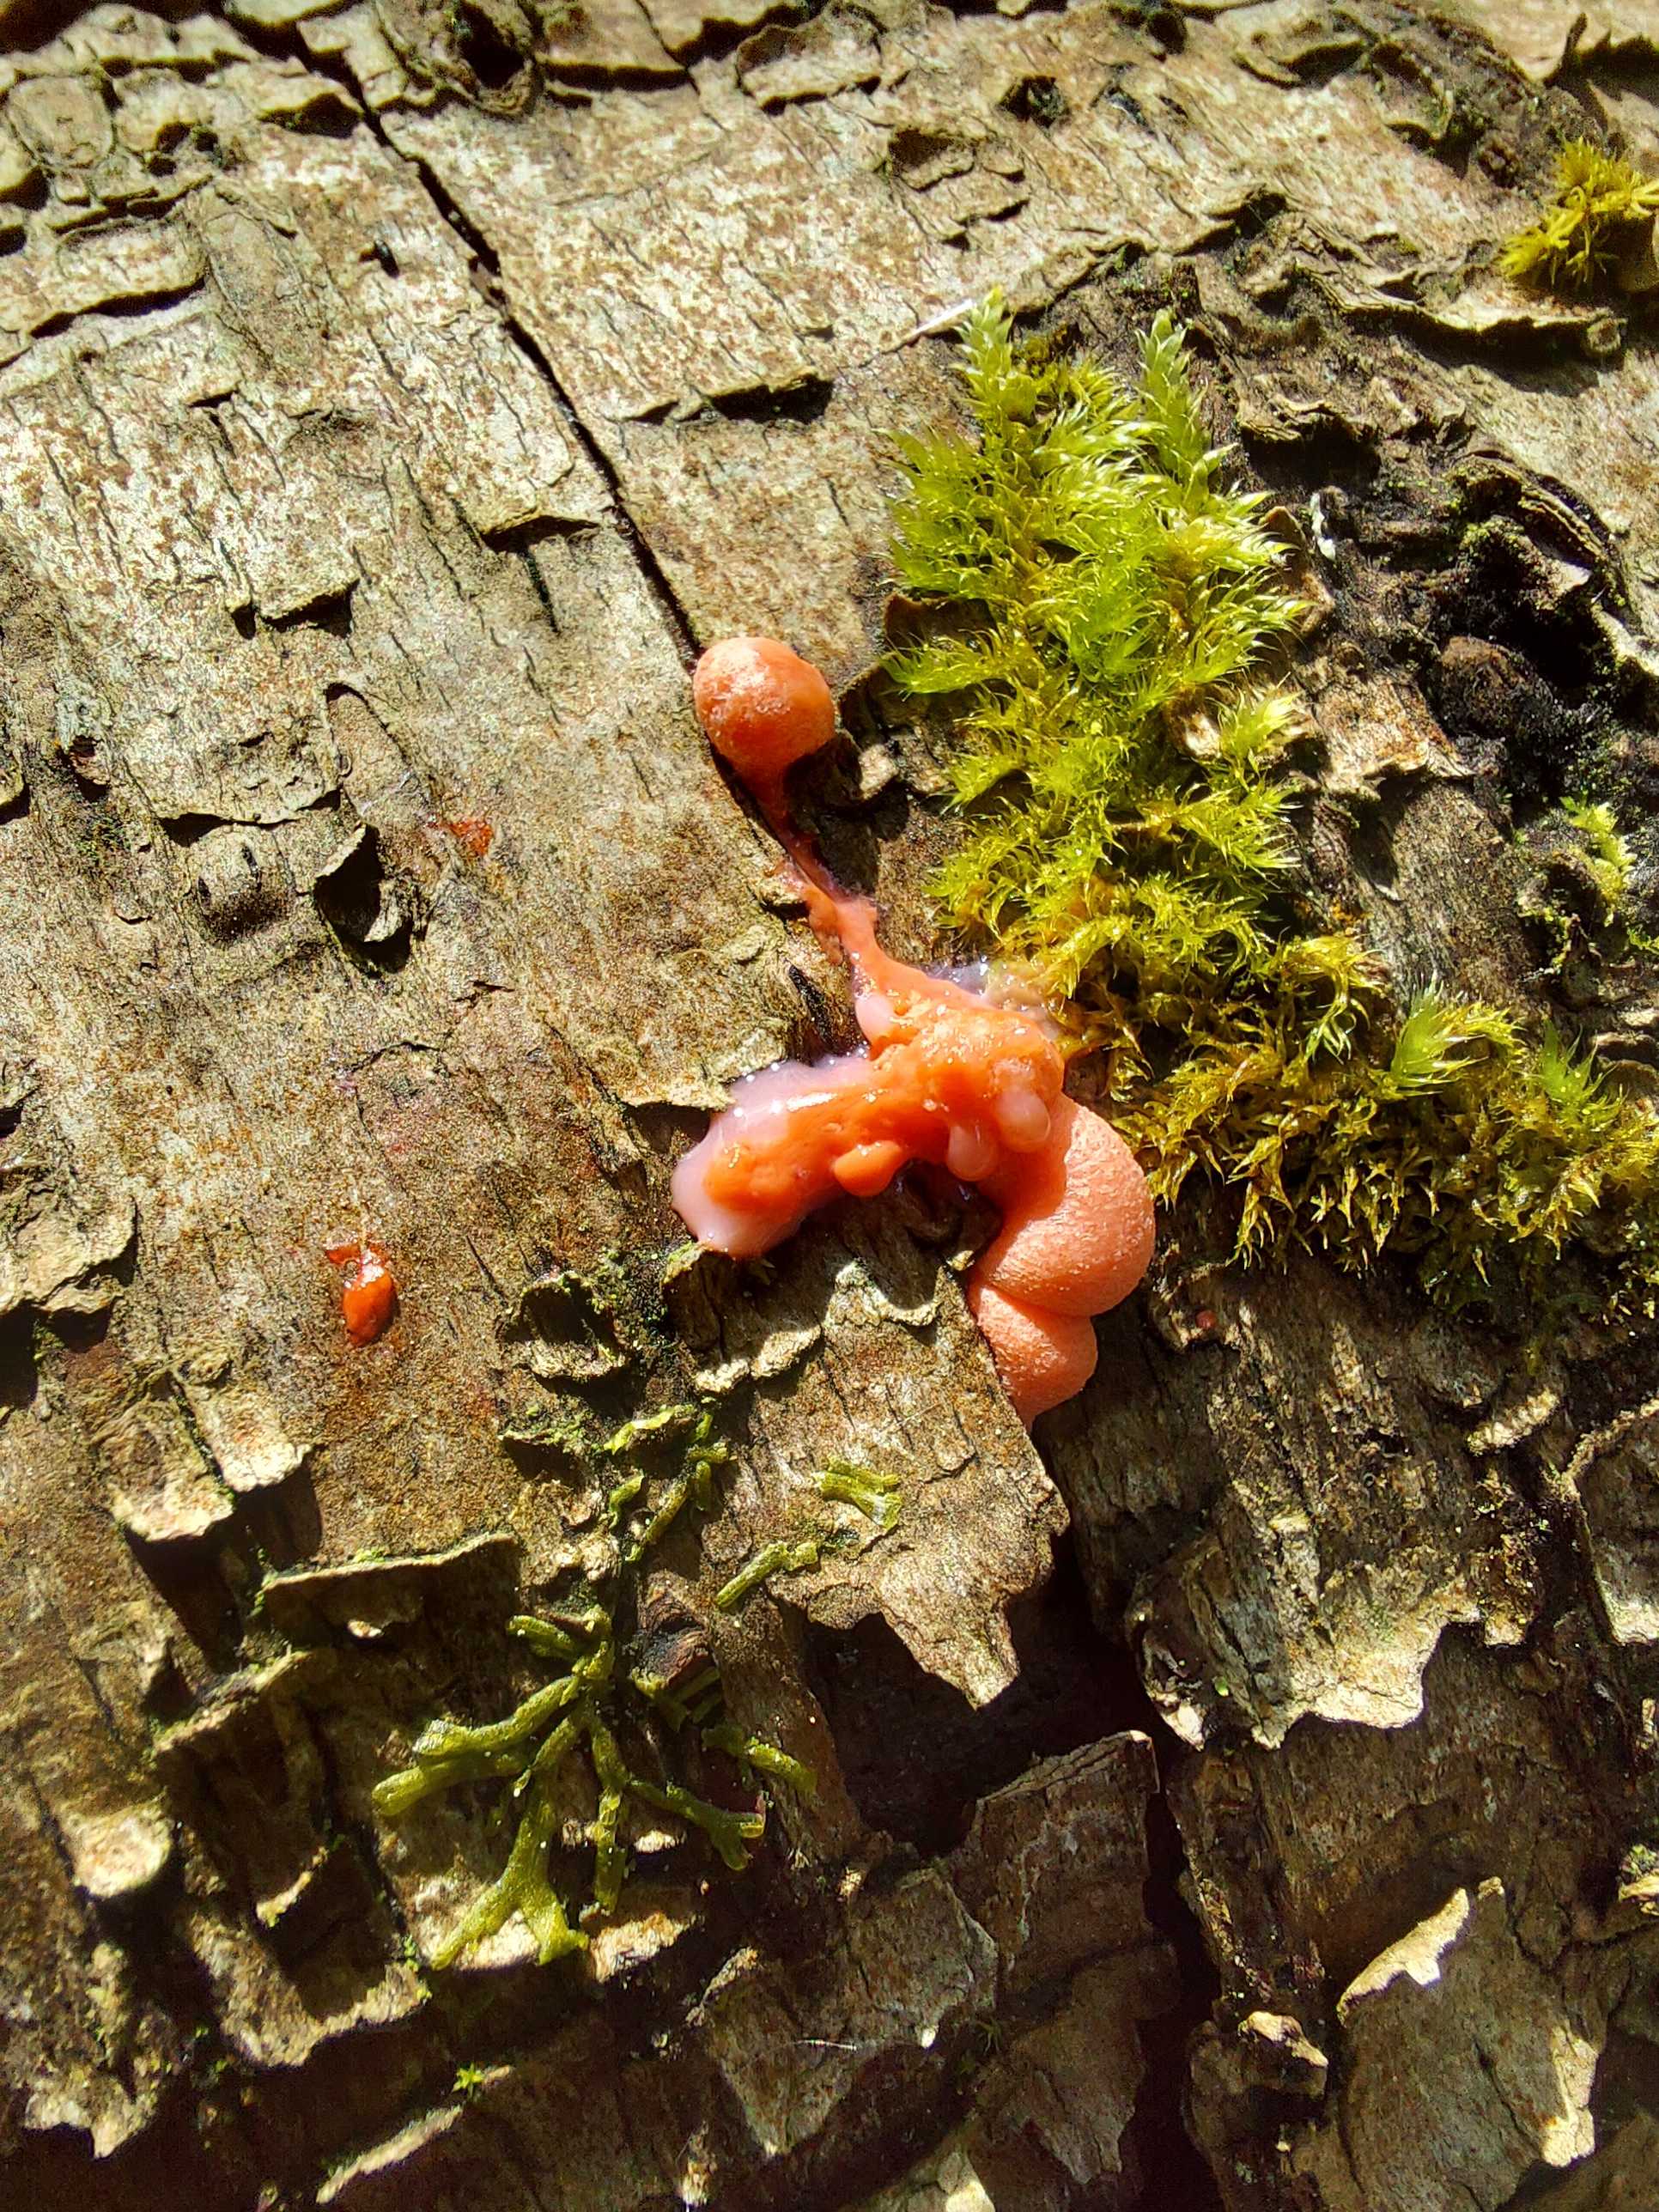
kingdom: Protozoa
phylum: Mycetozoa
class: Myxomycetes
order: Cribrariales
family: Tubiferaceae
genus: Lycogala
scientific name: Lycogala epidendrum
